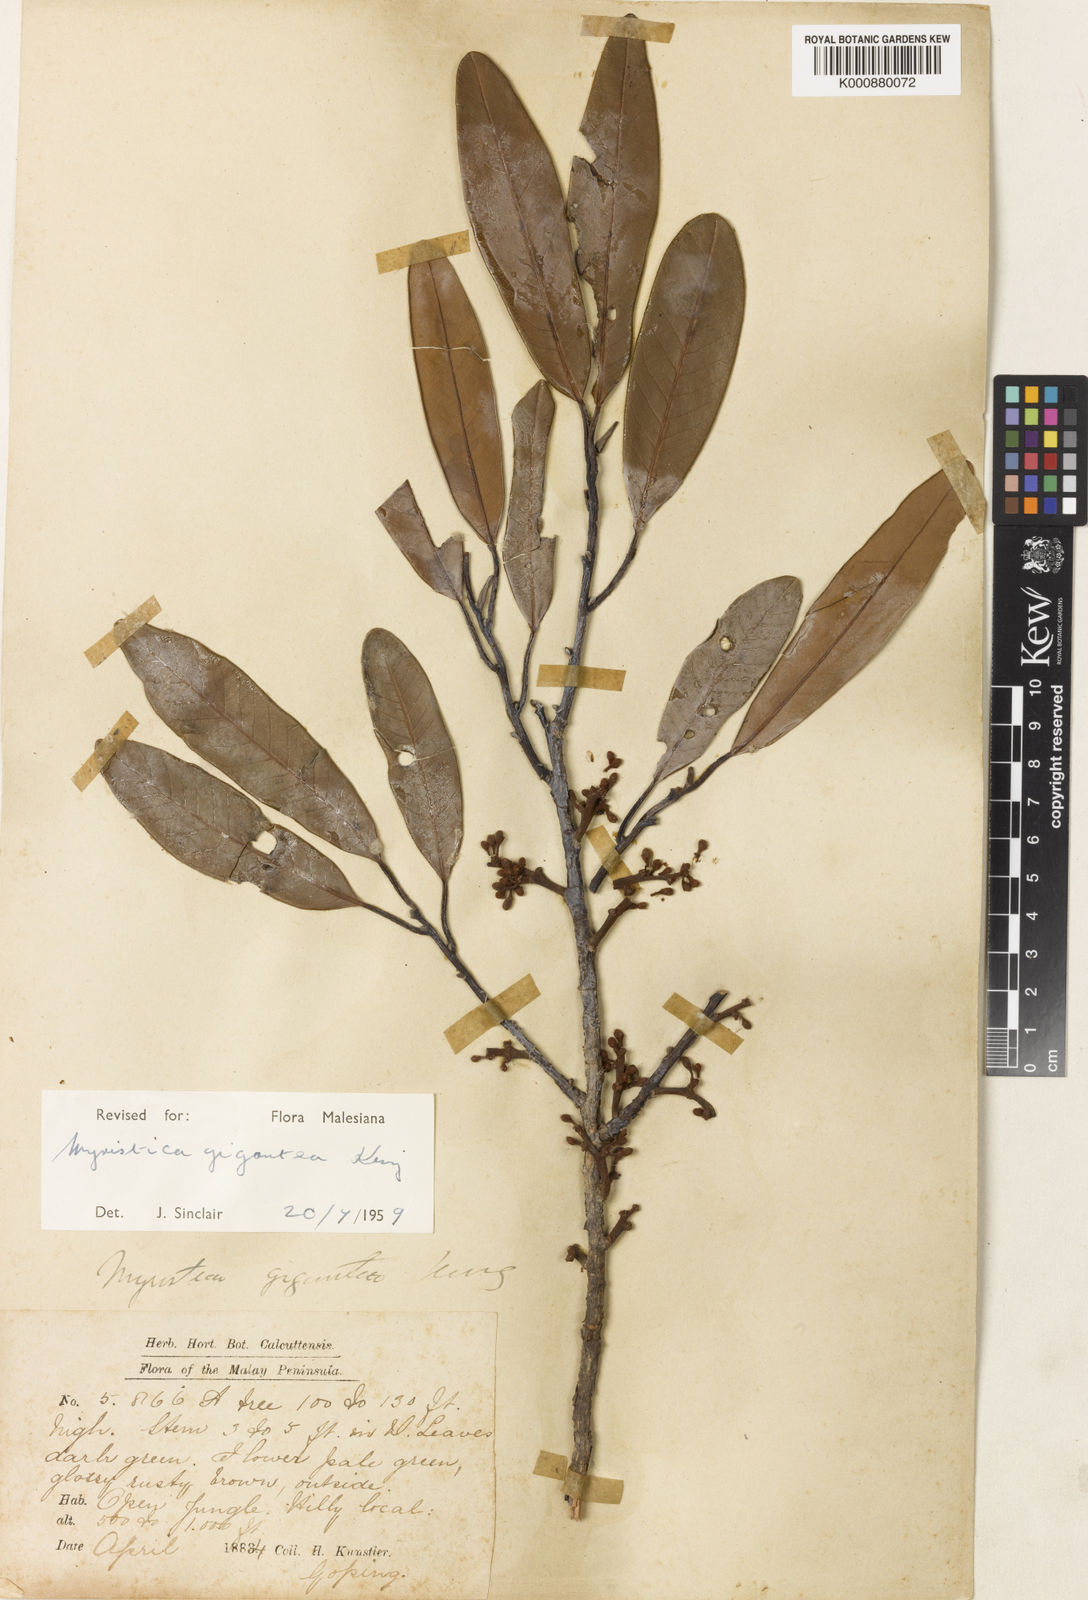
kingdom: Plantae
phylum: Tracheophyta
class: Magnoliopsida
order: Magnoliales
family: Myristicaceae
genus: Myristica
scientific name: Myristica gigantea
